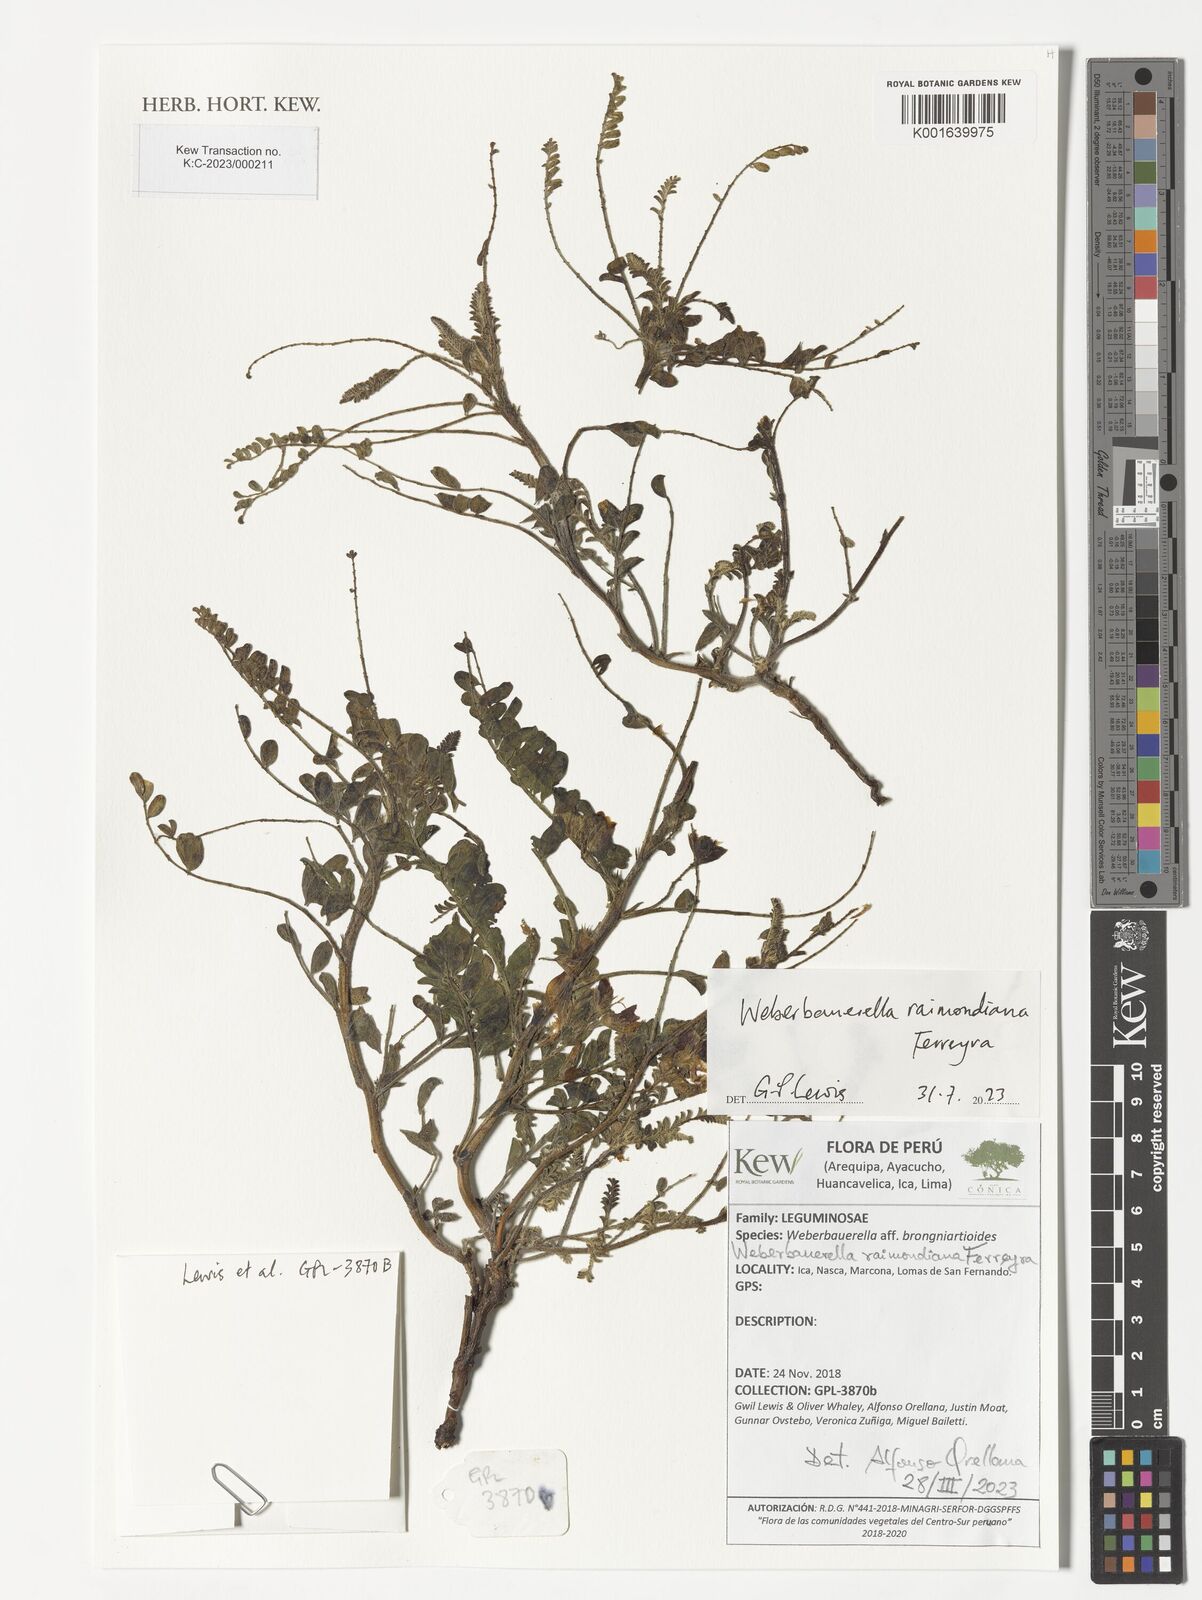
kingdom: Plantae
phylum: Tracheophyta
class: Magnoliopsida
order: Fabales
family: Fabaceae
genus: Weberbauerella
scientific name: Weberbauerella raimondiana
